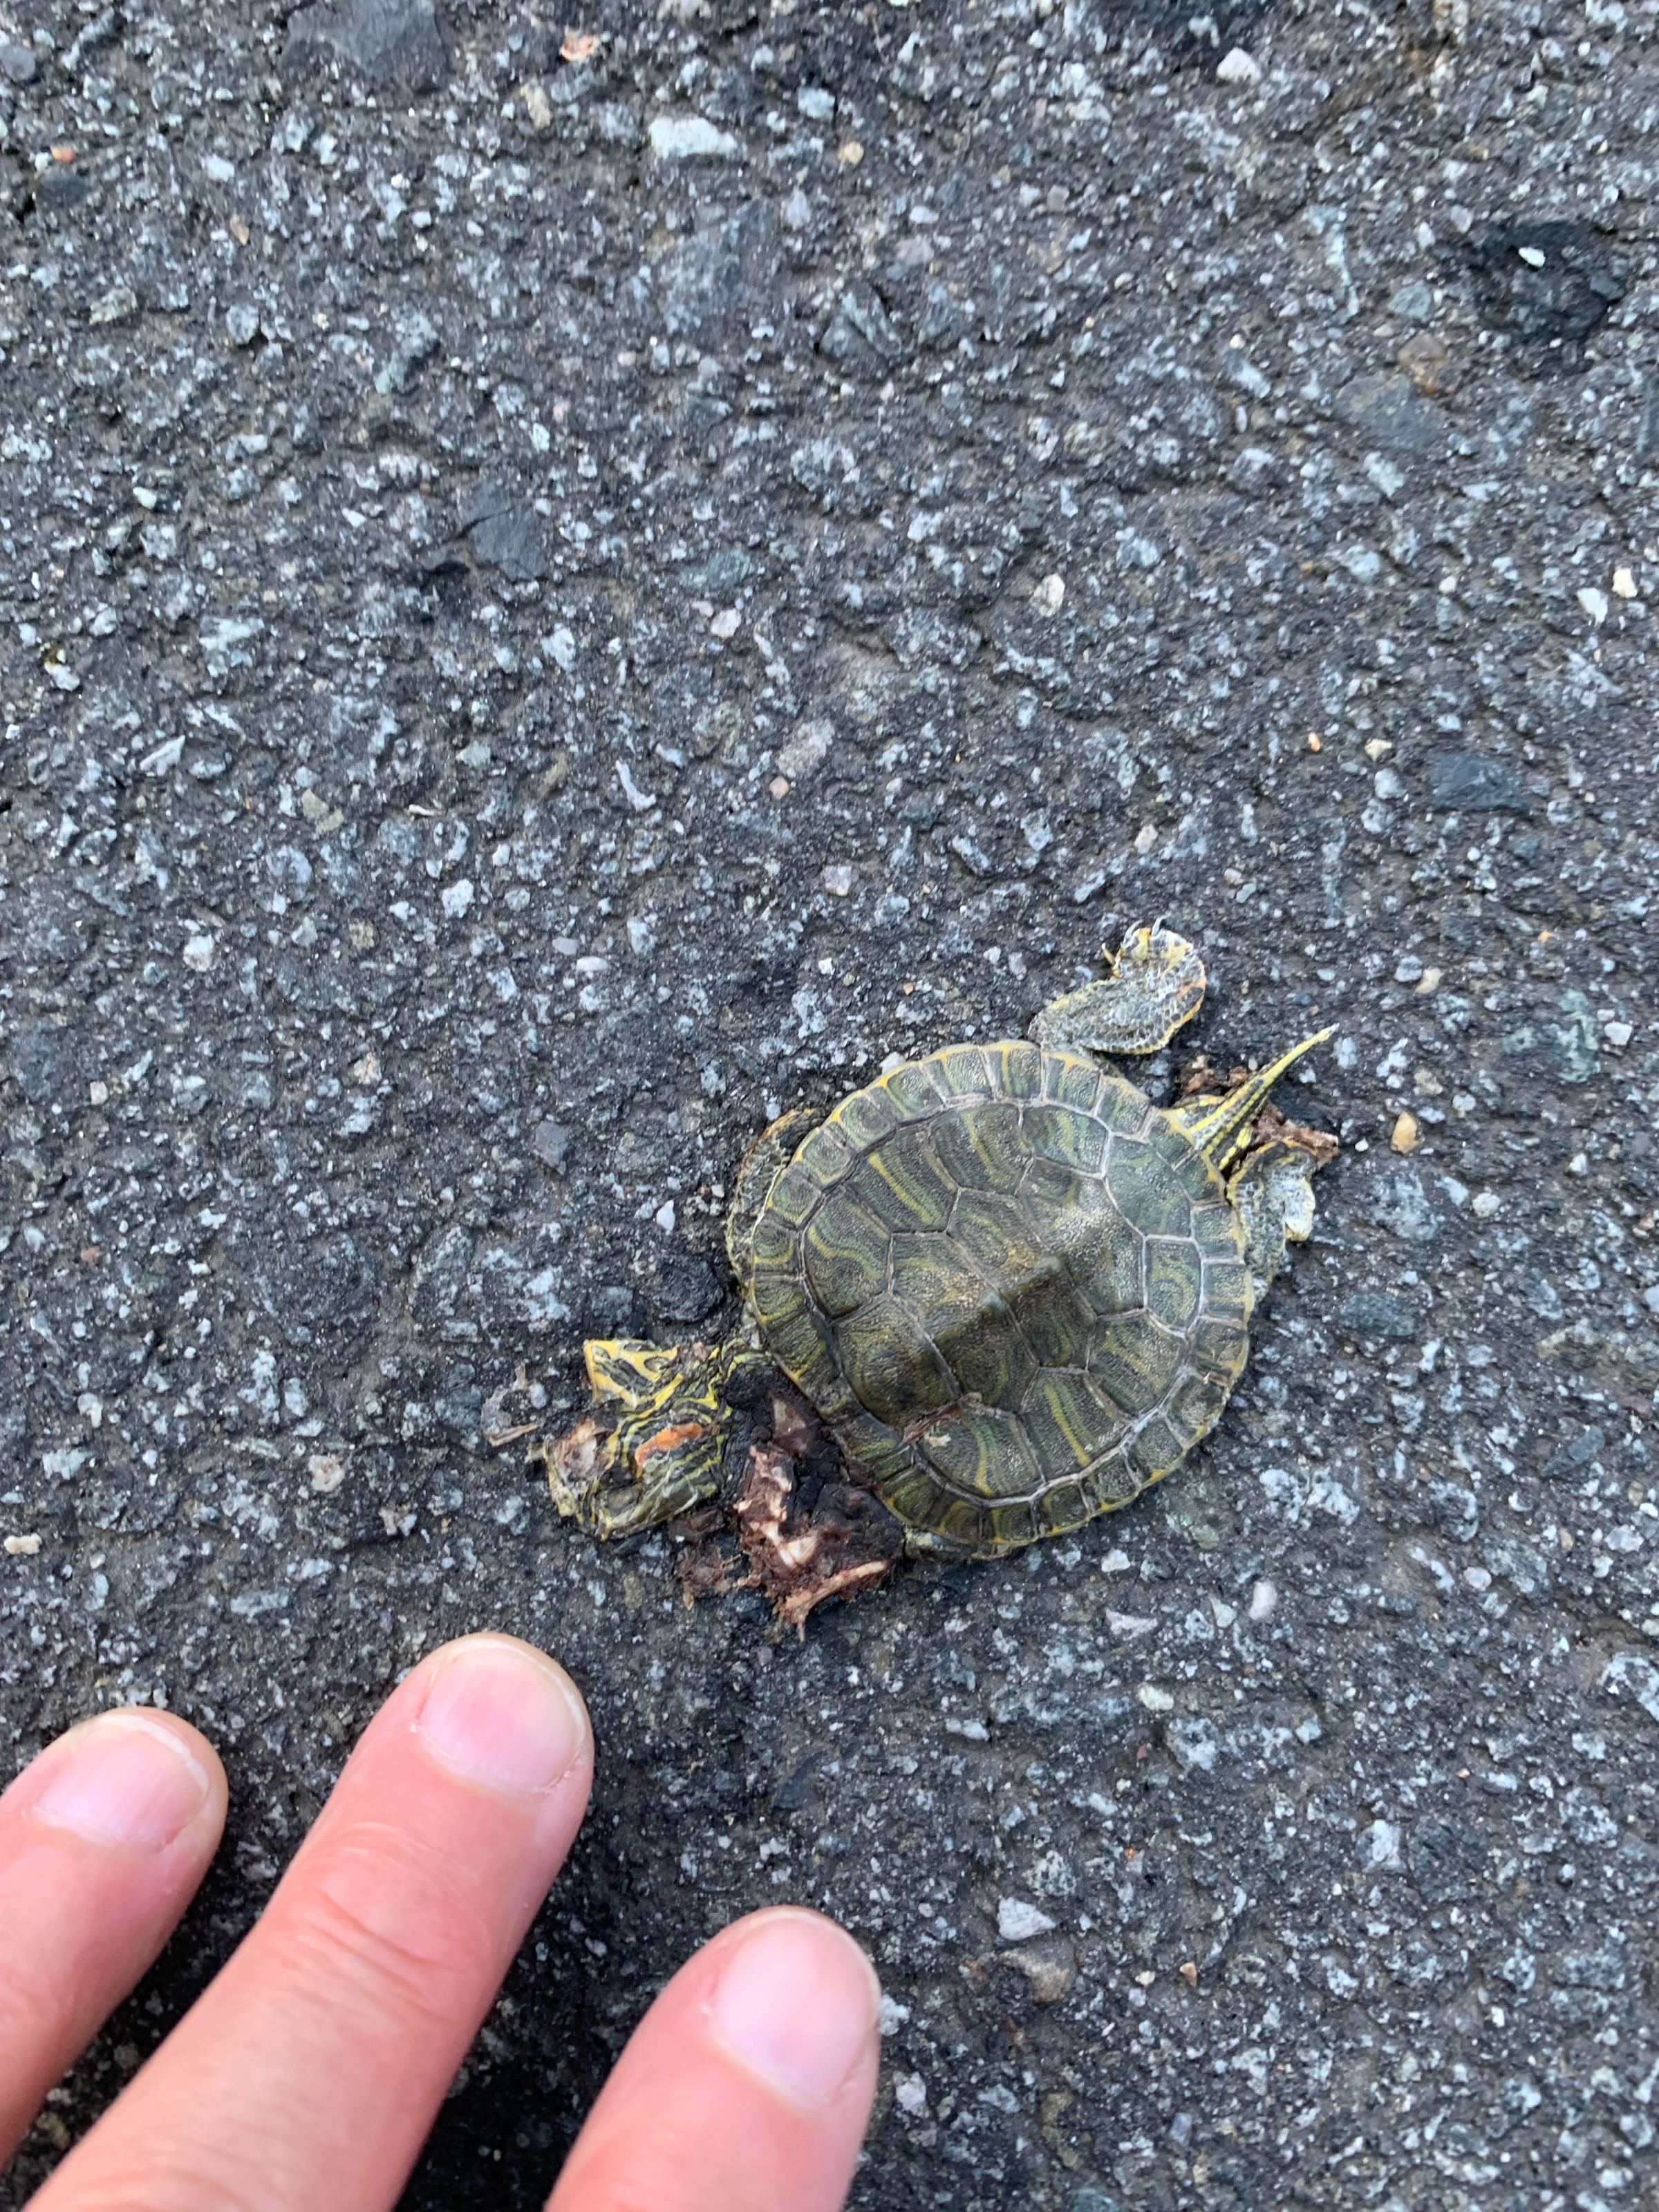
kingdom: Animalia
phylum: Chordata
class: Testudines
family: Emydidae
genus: Trachemys
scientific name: Trachemys scripta
